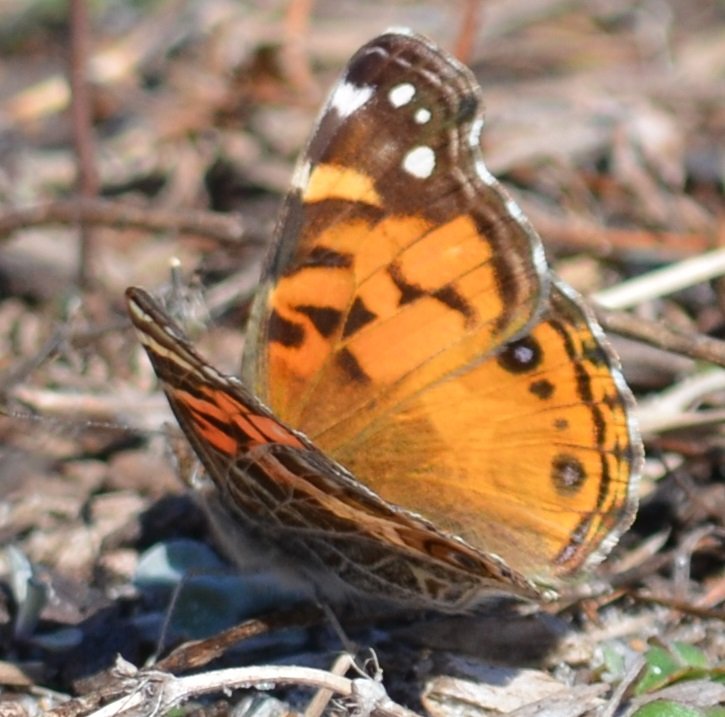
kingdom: Animalia
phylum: Arthropoda
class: Insecta
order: Lepidoptera
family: Nymphalidae
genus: Vanessa
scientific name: Vanessa virginiensis
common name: American Lady
